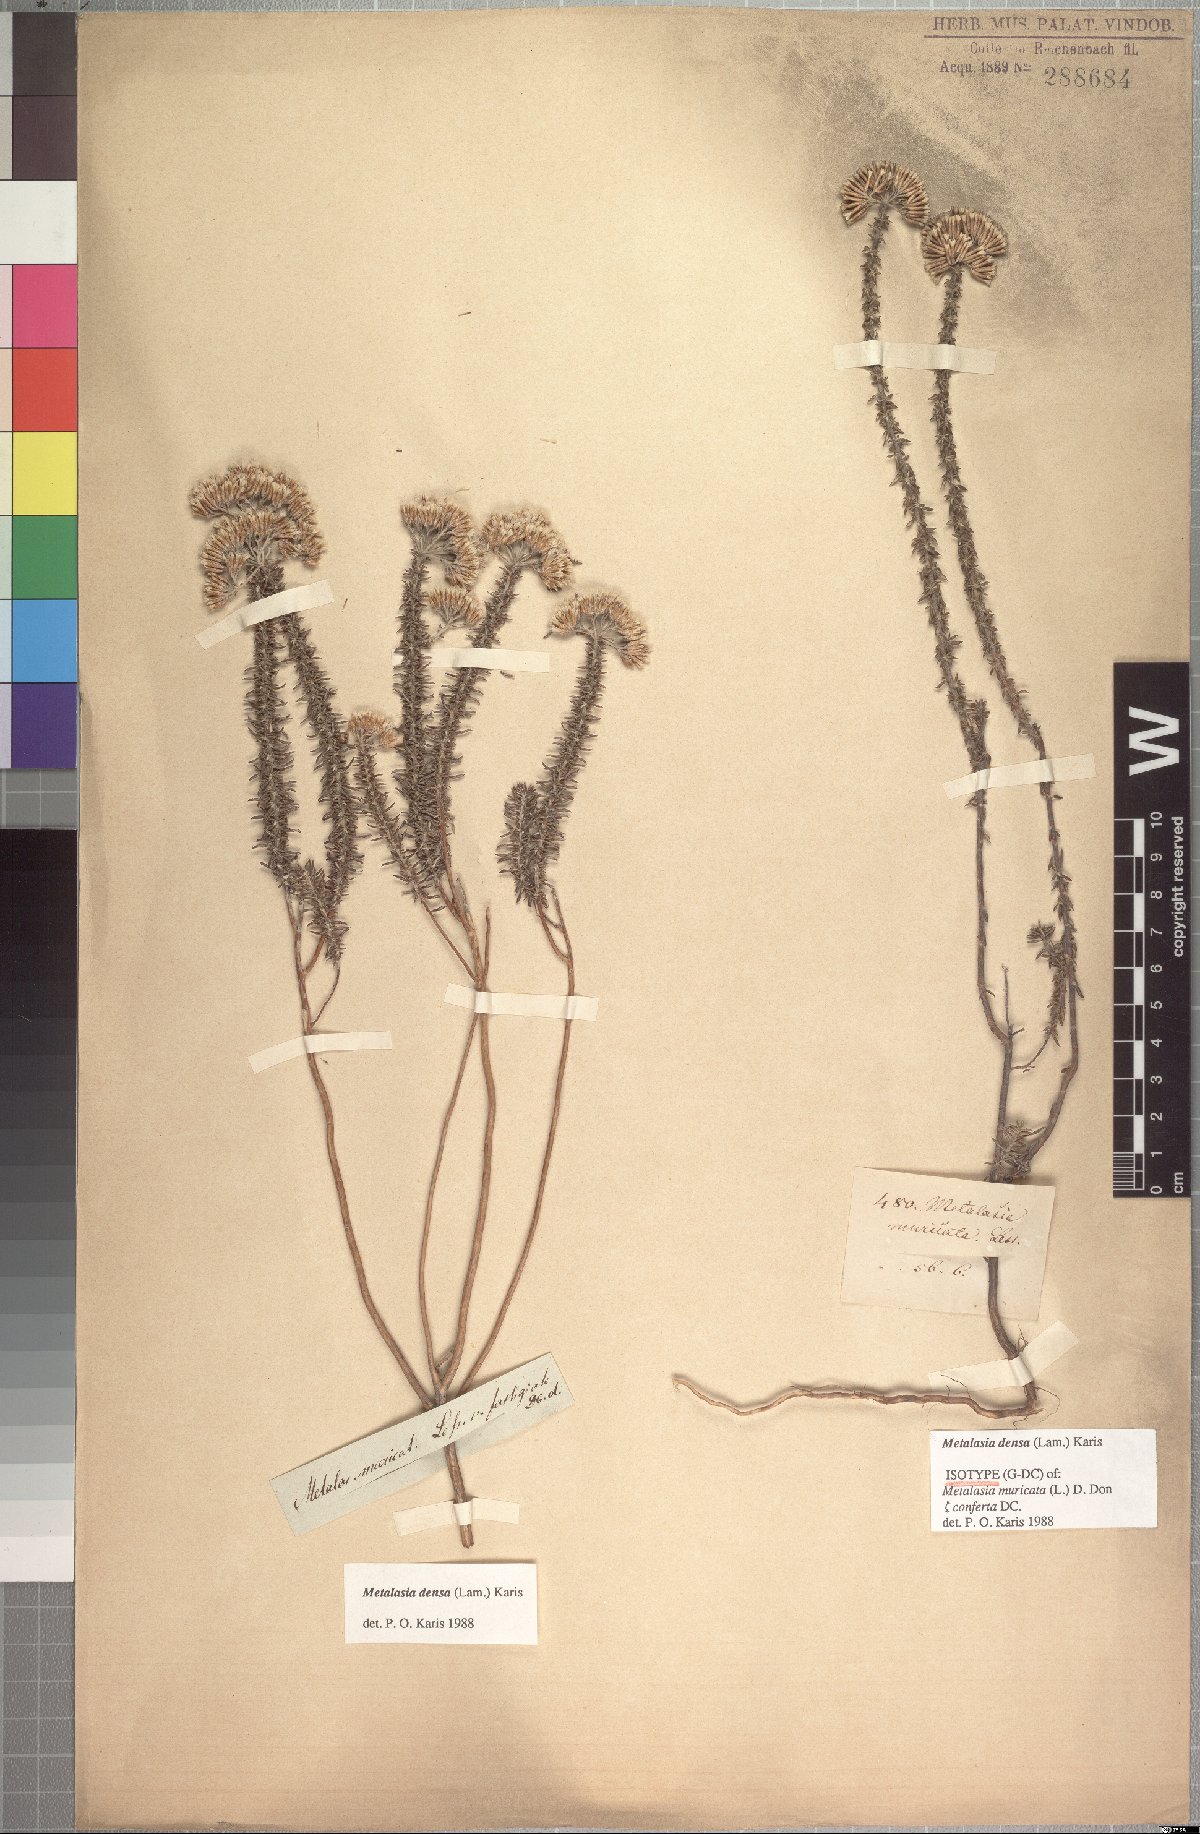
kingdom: Plantae
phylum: Tracheophyta
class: Magnoliopsida
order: Asterales
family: Asteraceae
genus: Metalasia
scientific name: Metalasia densa
